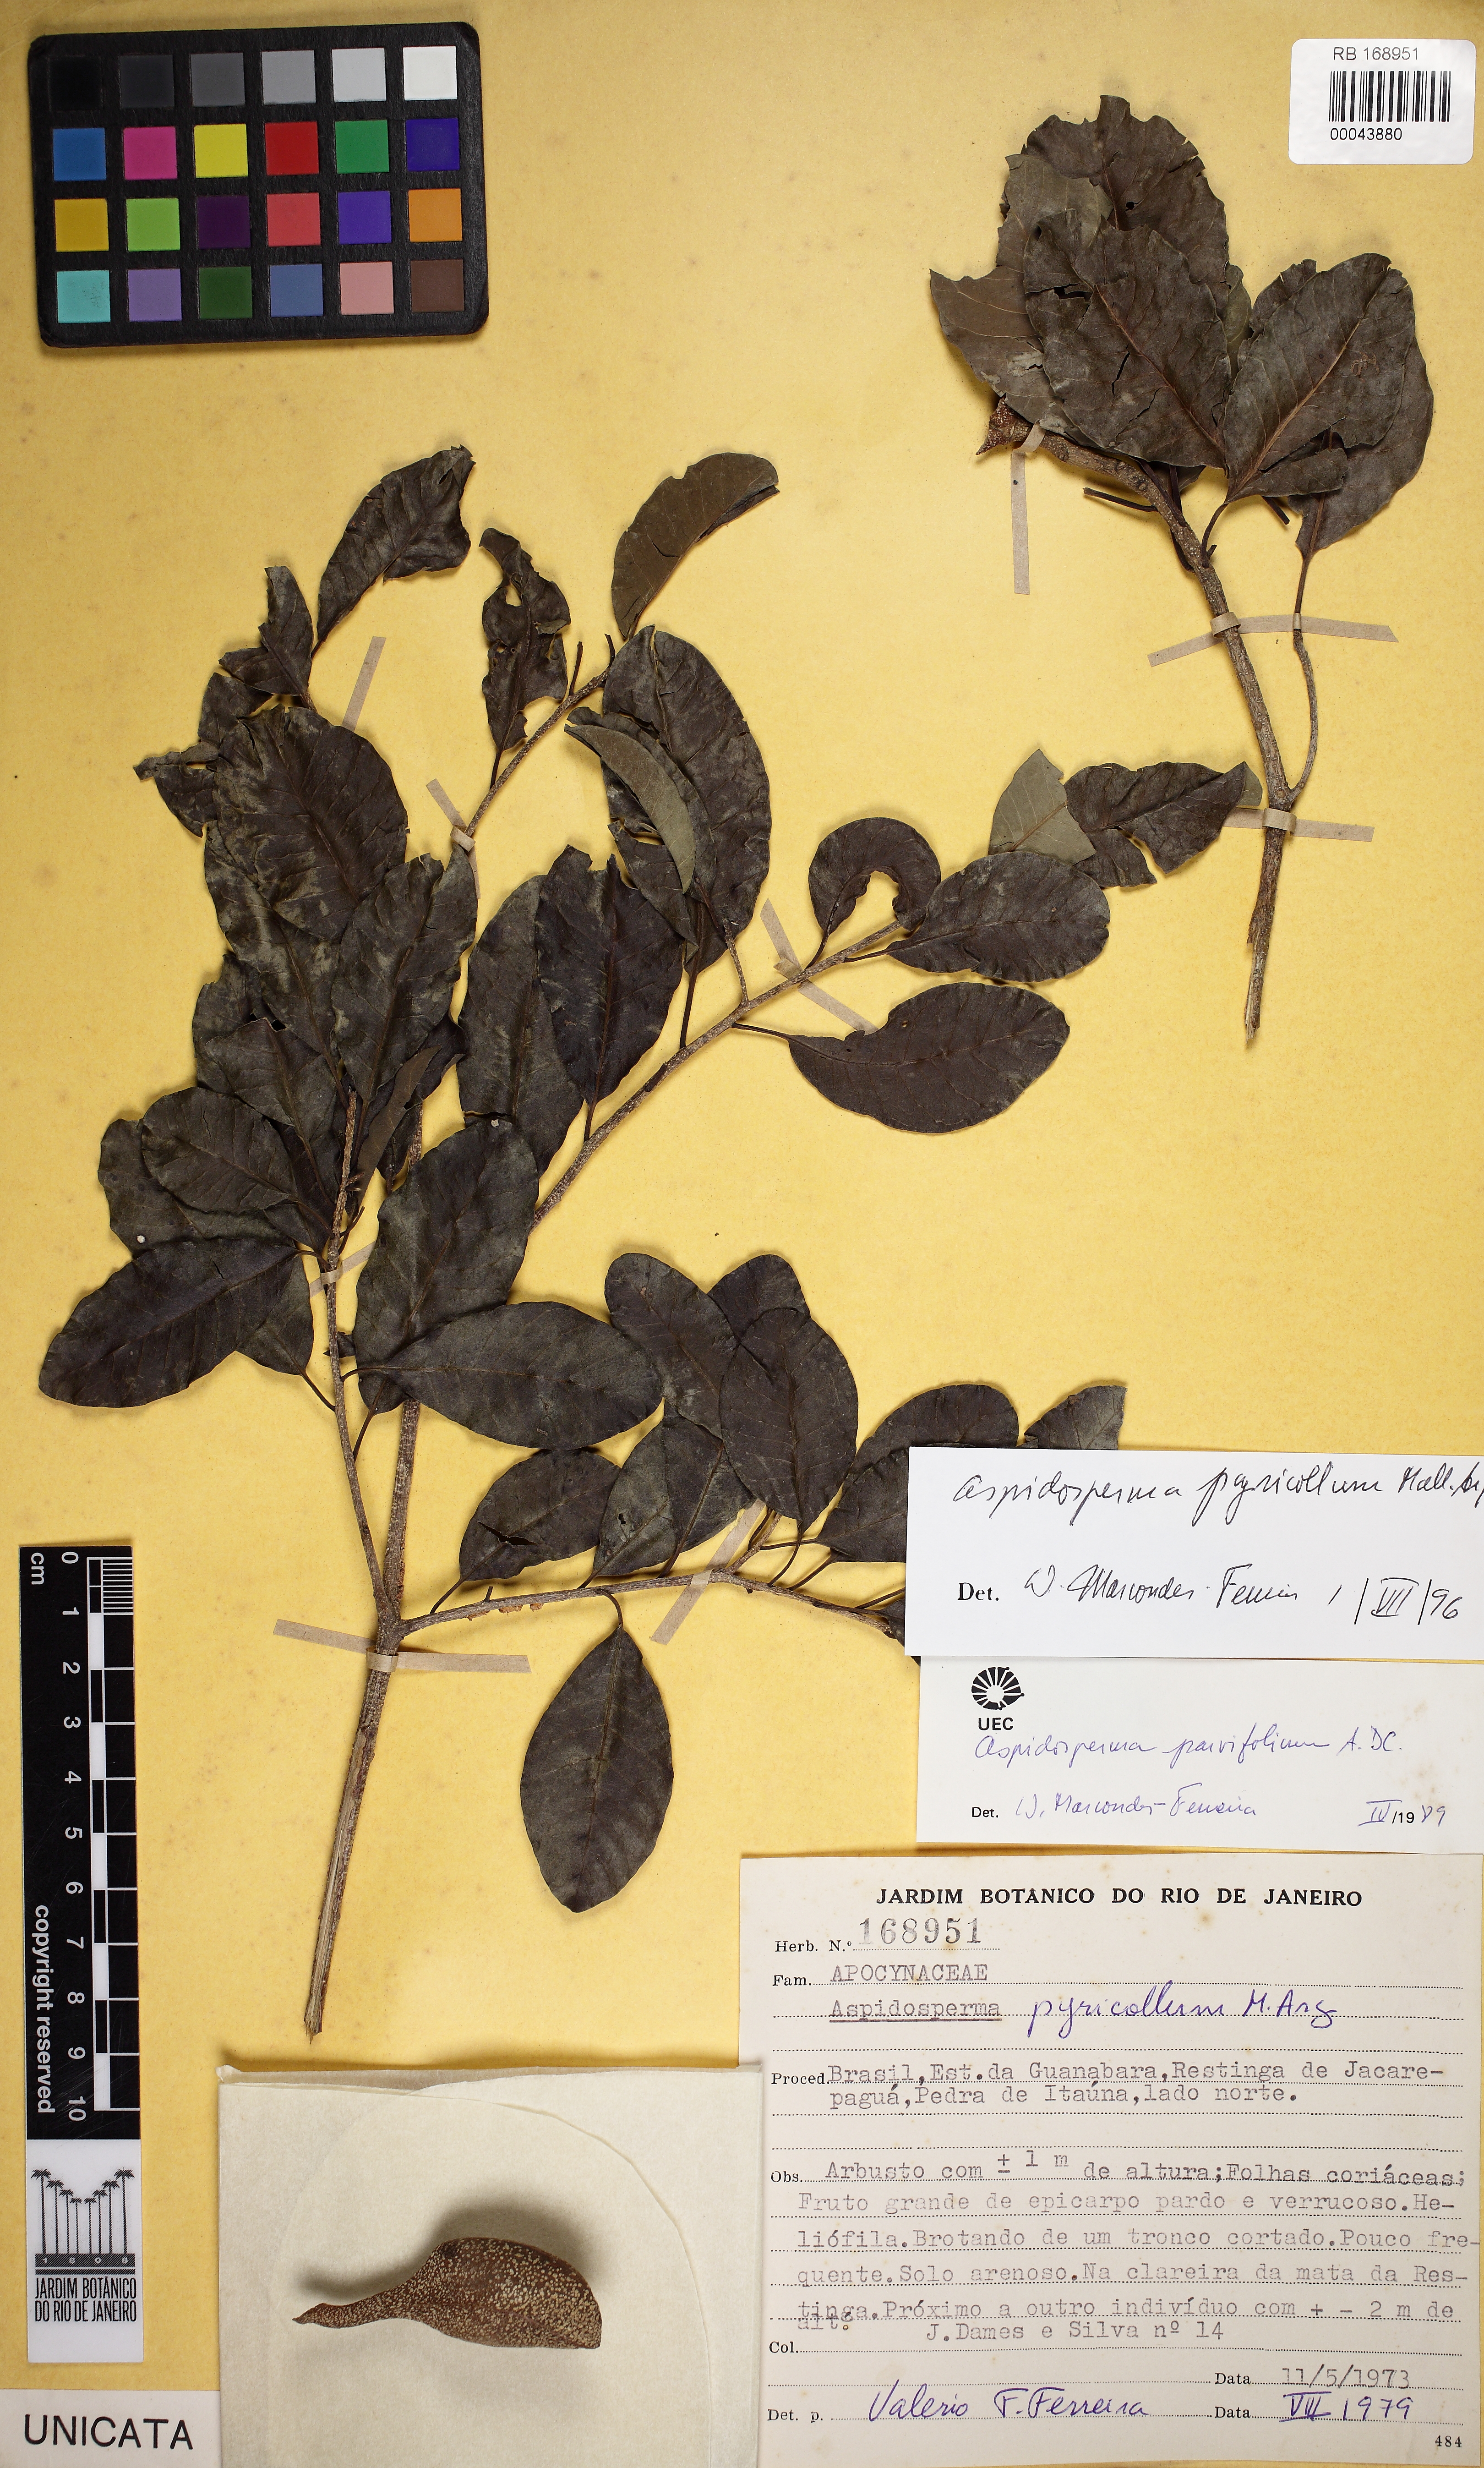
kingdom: Plantae
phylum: Tracheophyta
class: Magnoliopsida
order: Gentianales
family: Apocynaceae
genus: Aspidosperma
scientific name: Aspidosperma pyricollum
